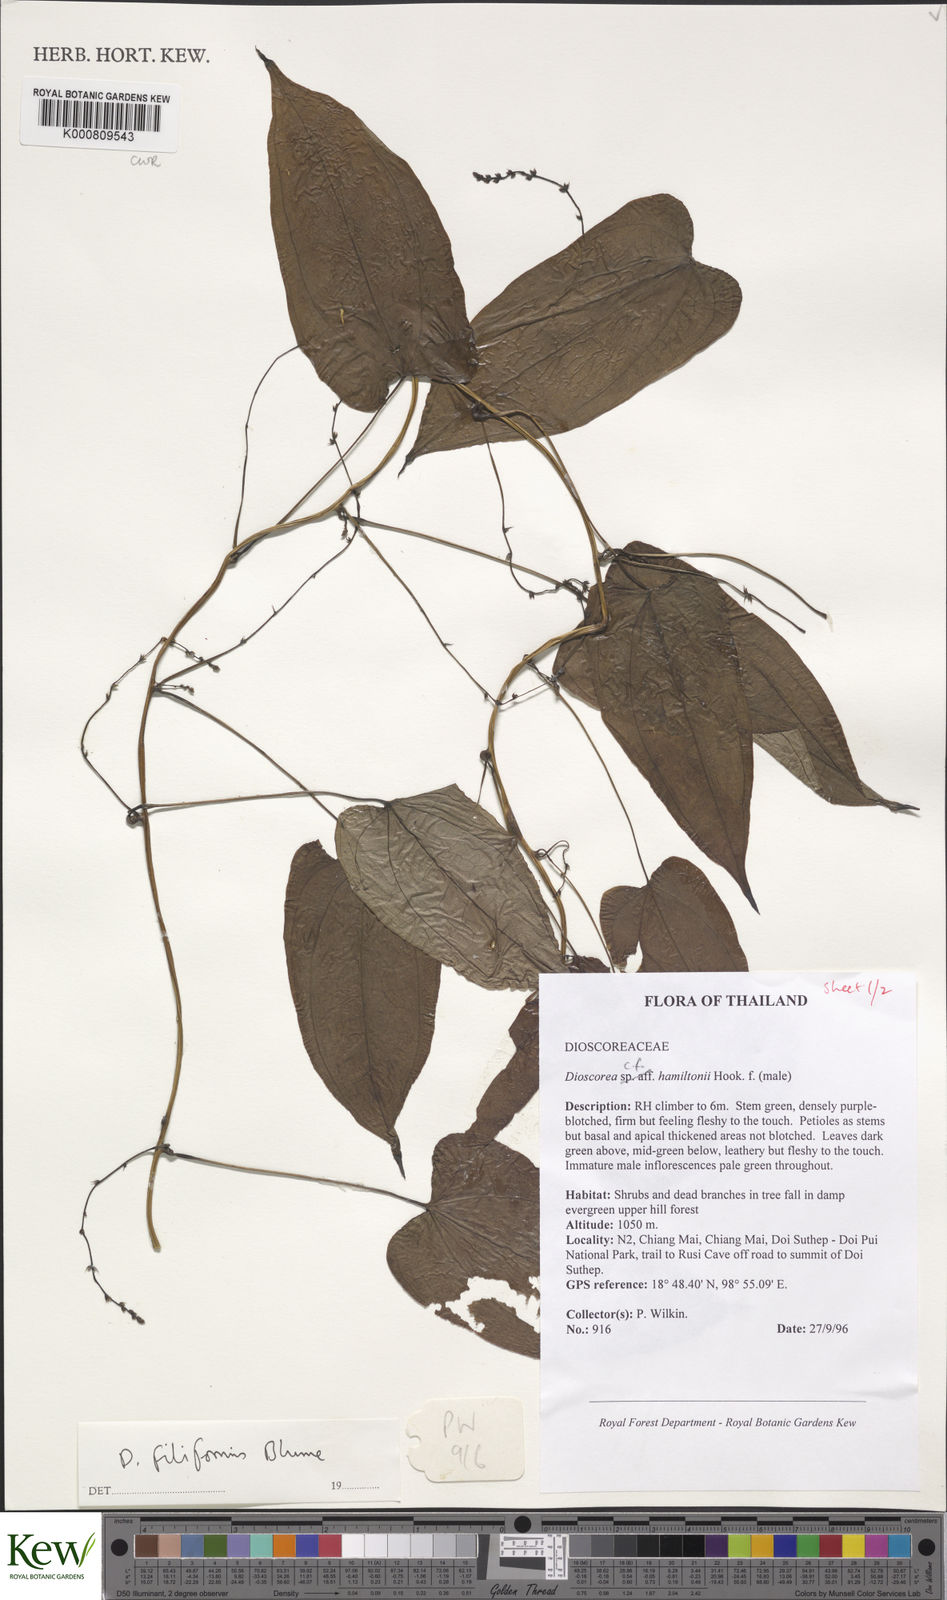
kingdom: Plantae
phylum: Tracheophyta
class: Liliopsida
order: Dioscoreales
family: Dioscoreaceae
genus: Dioscorea
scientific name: Dioscorea filiformis
